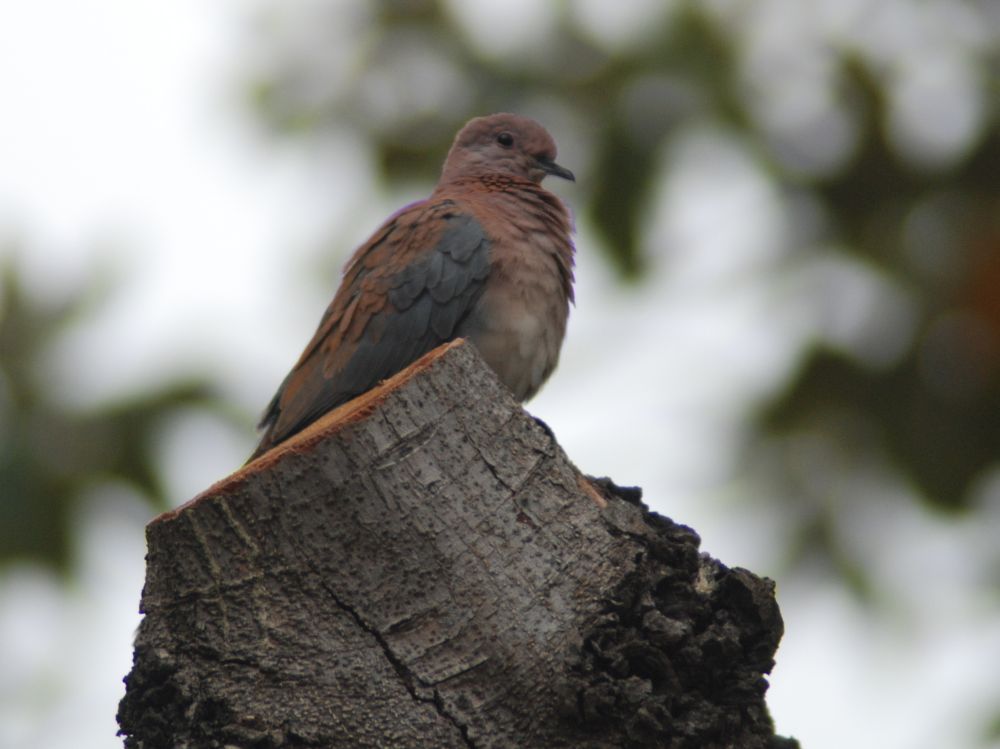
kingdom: Animalia
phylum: Chordata
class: Aves
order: Columbiformes
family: Columbidae
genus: Spilopelia
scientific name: Spilopelia senegalensis
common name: Laughing dove
